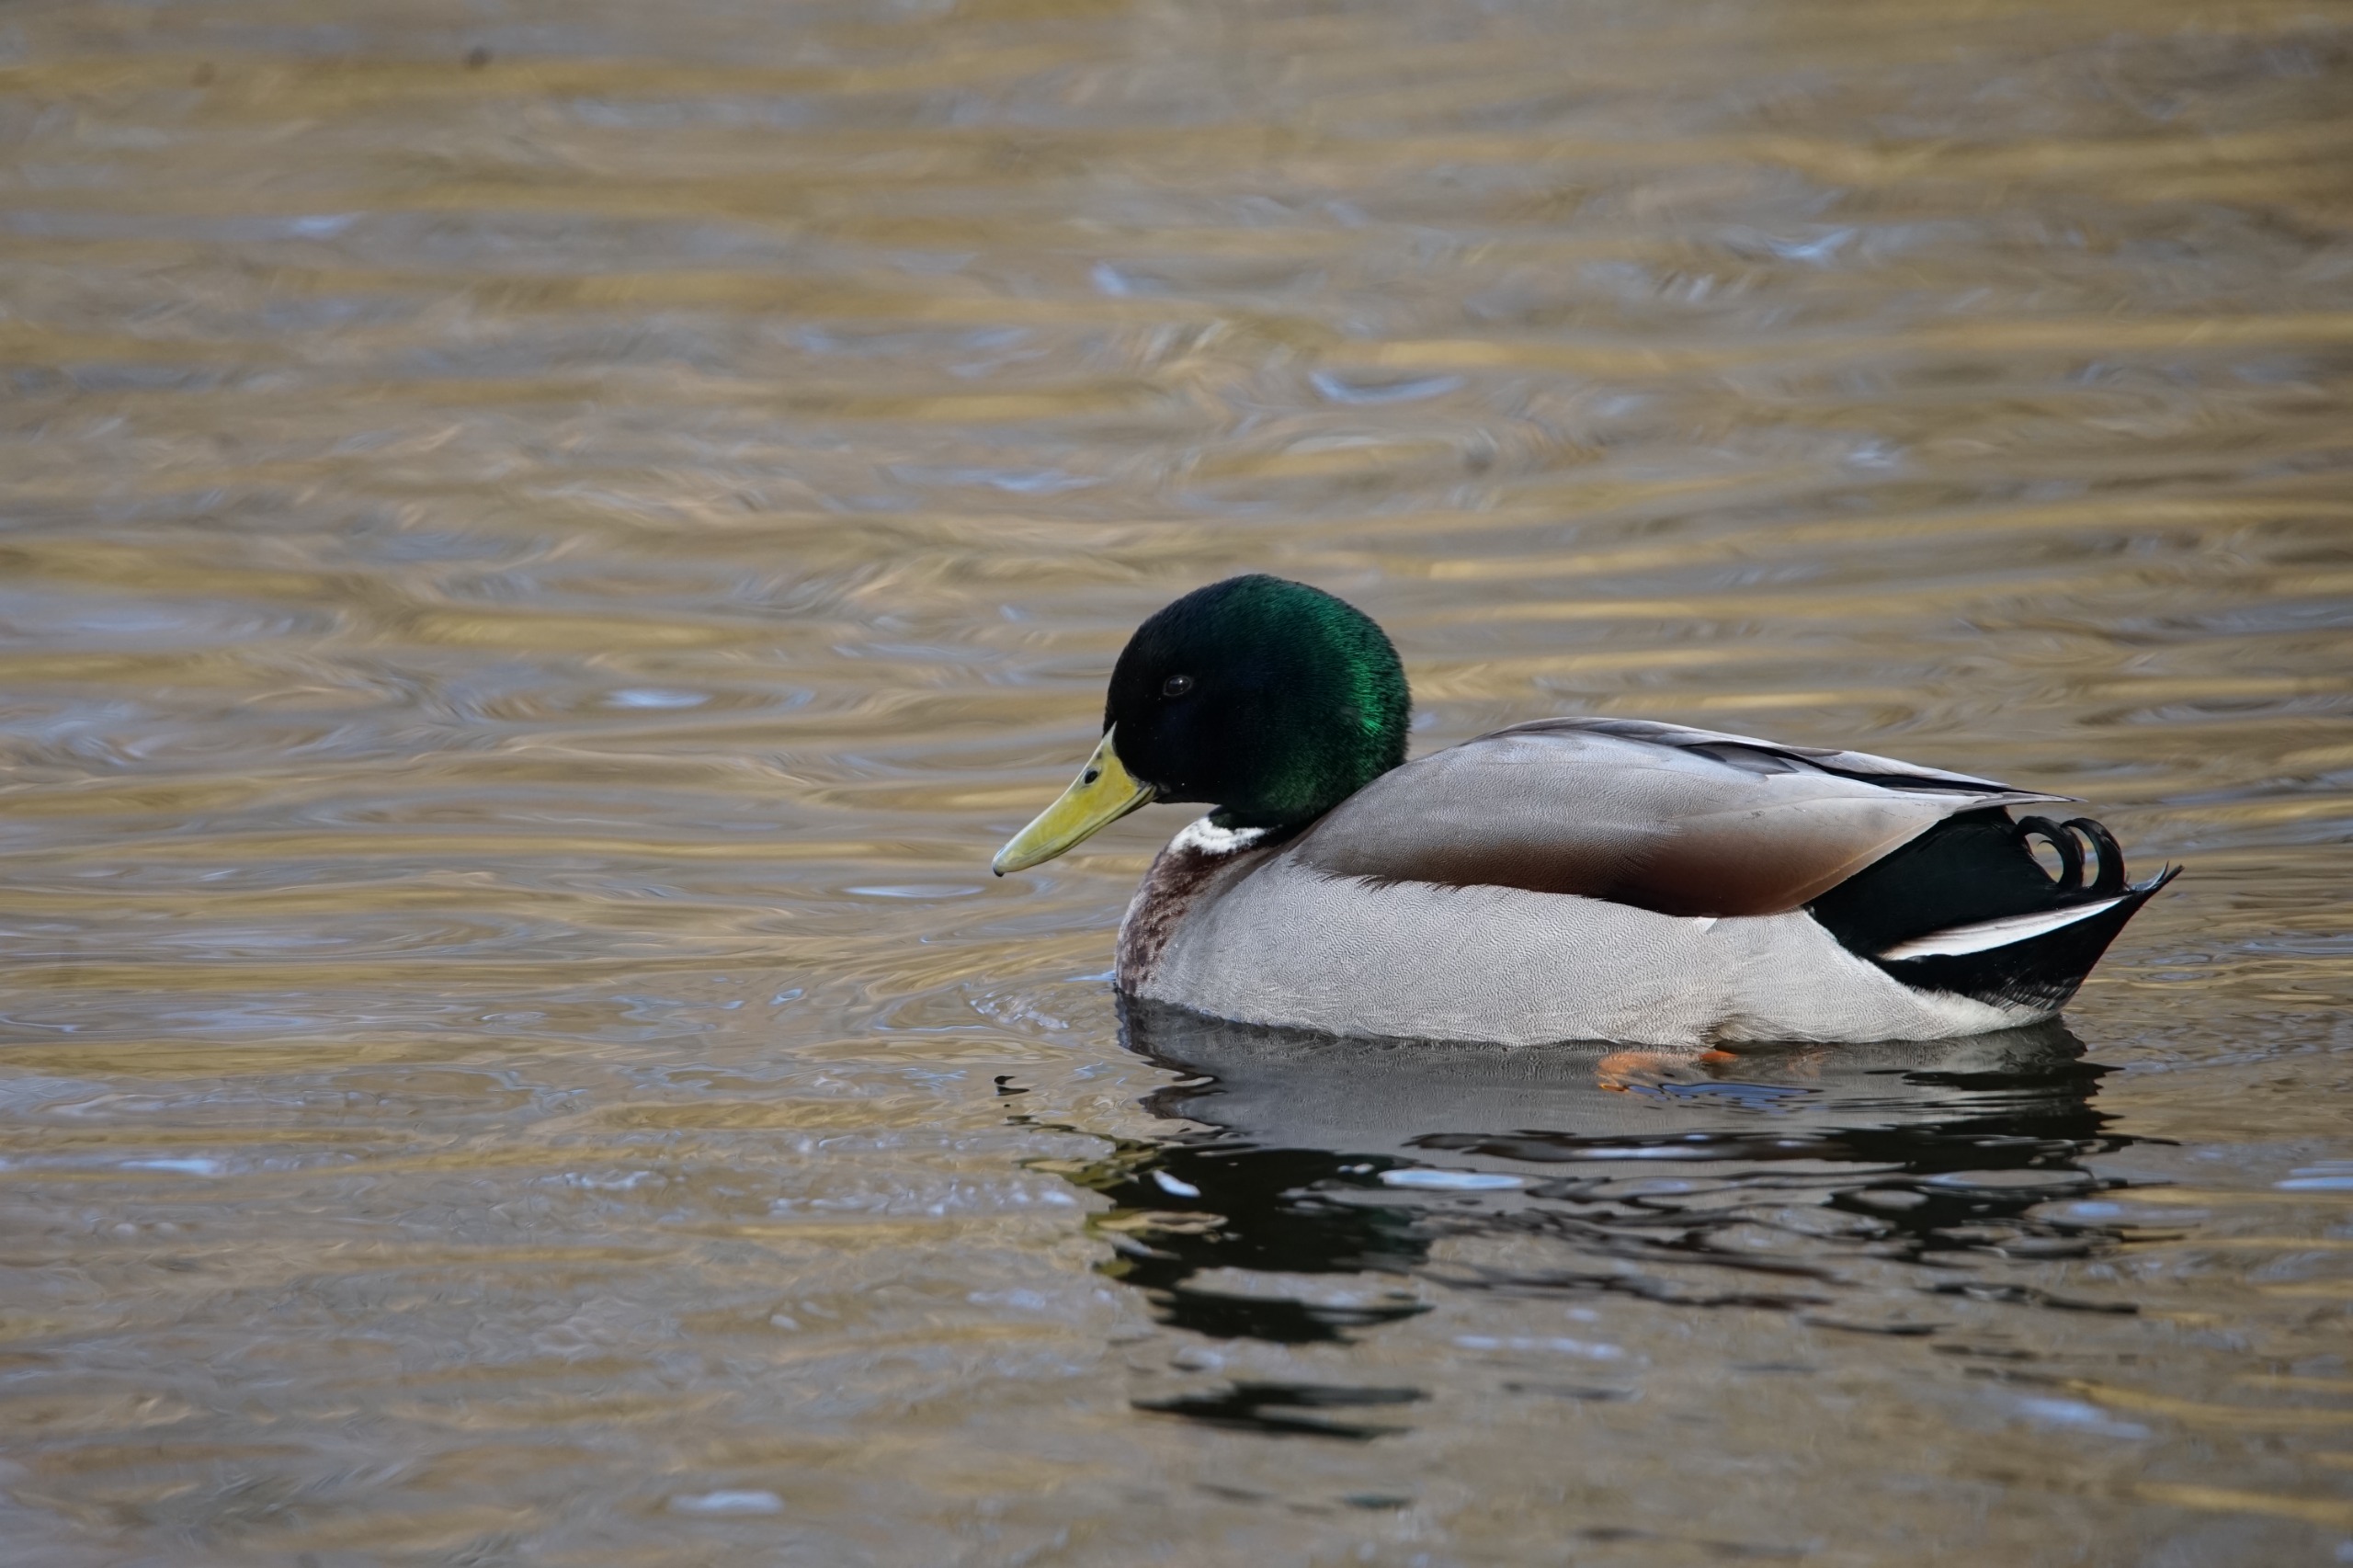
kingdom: Animalia
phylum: Chordata
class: Aves
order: Anseriformes
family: Anatidae
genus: Anas
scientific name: Anas platyrhynchos
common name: Gråand
